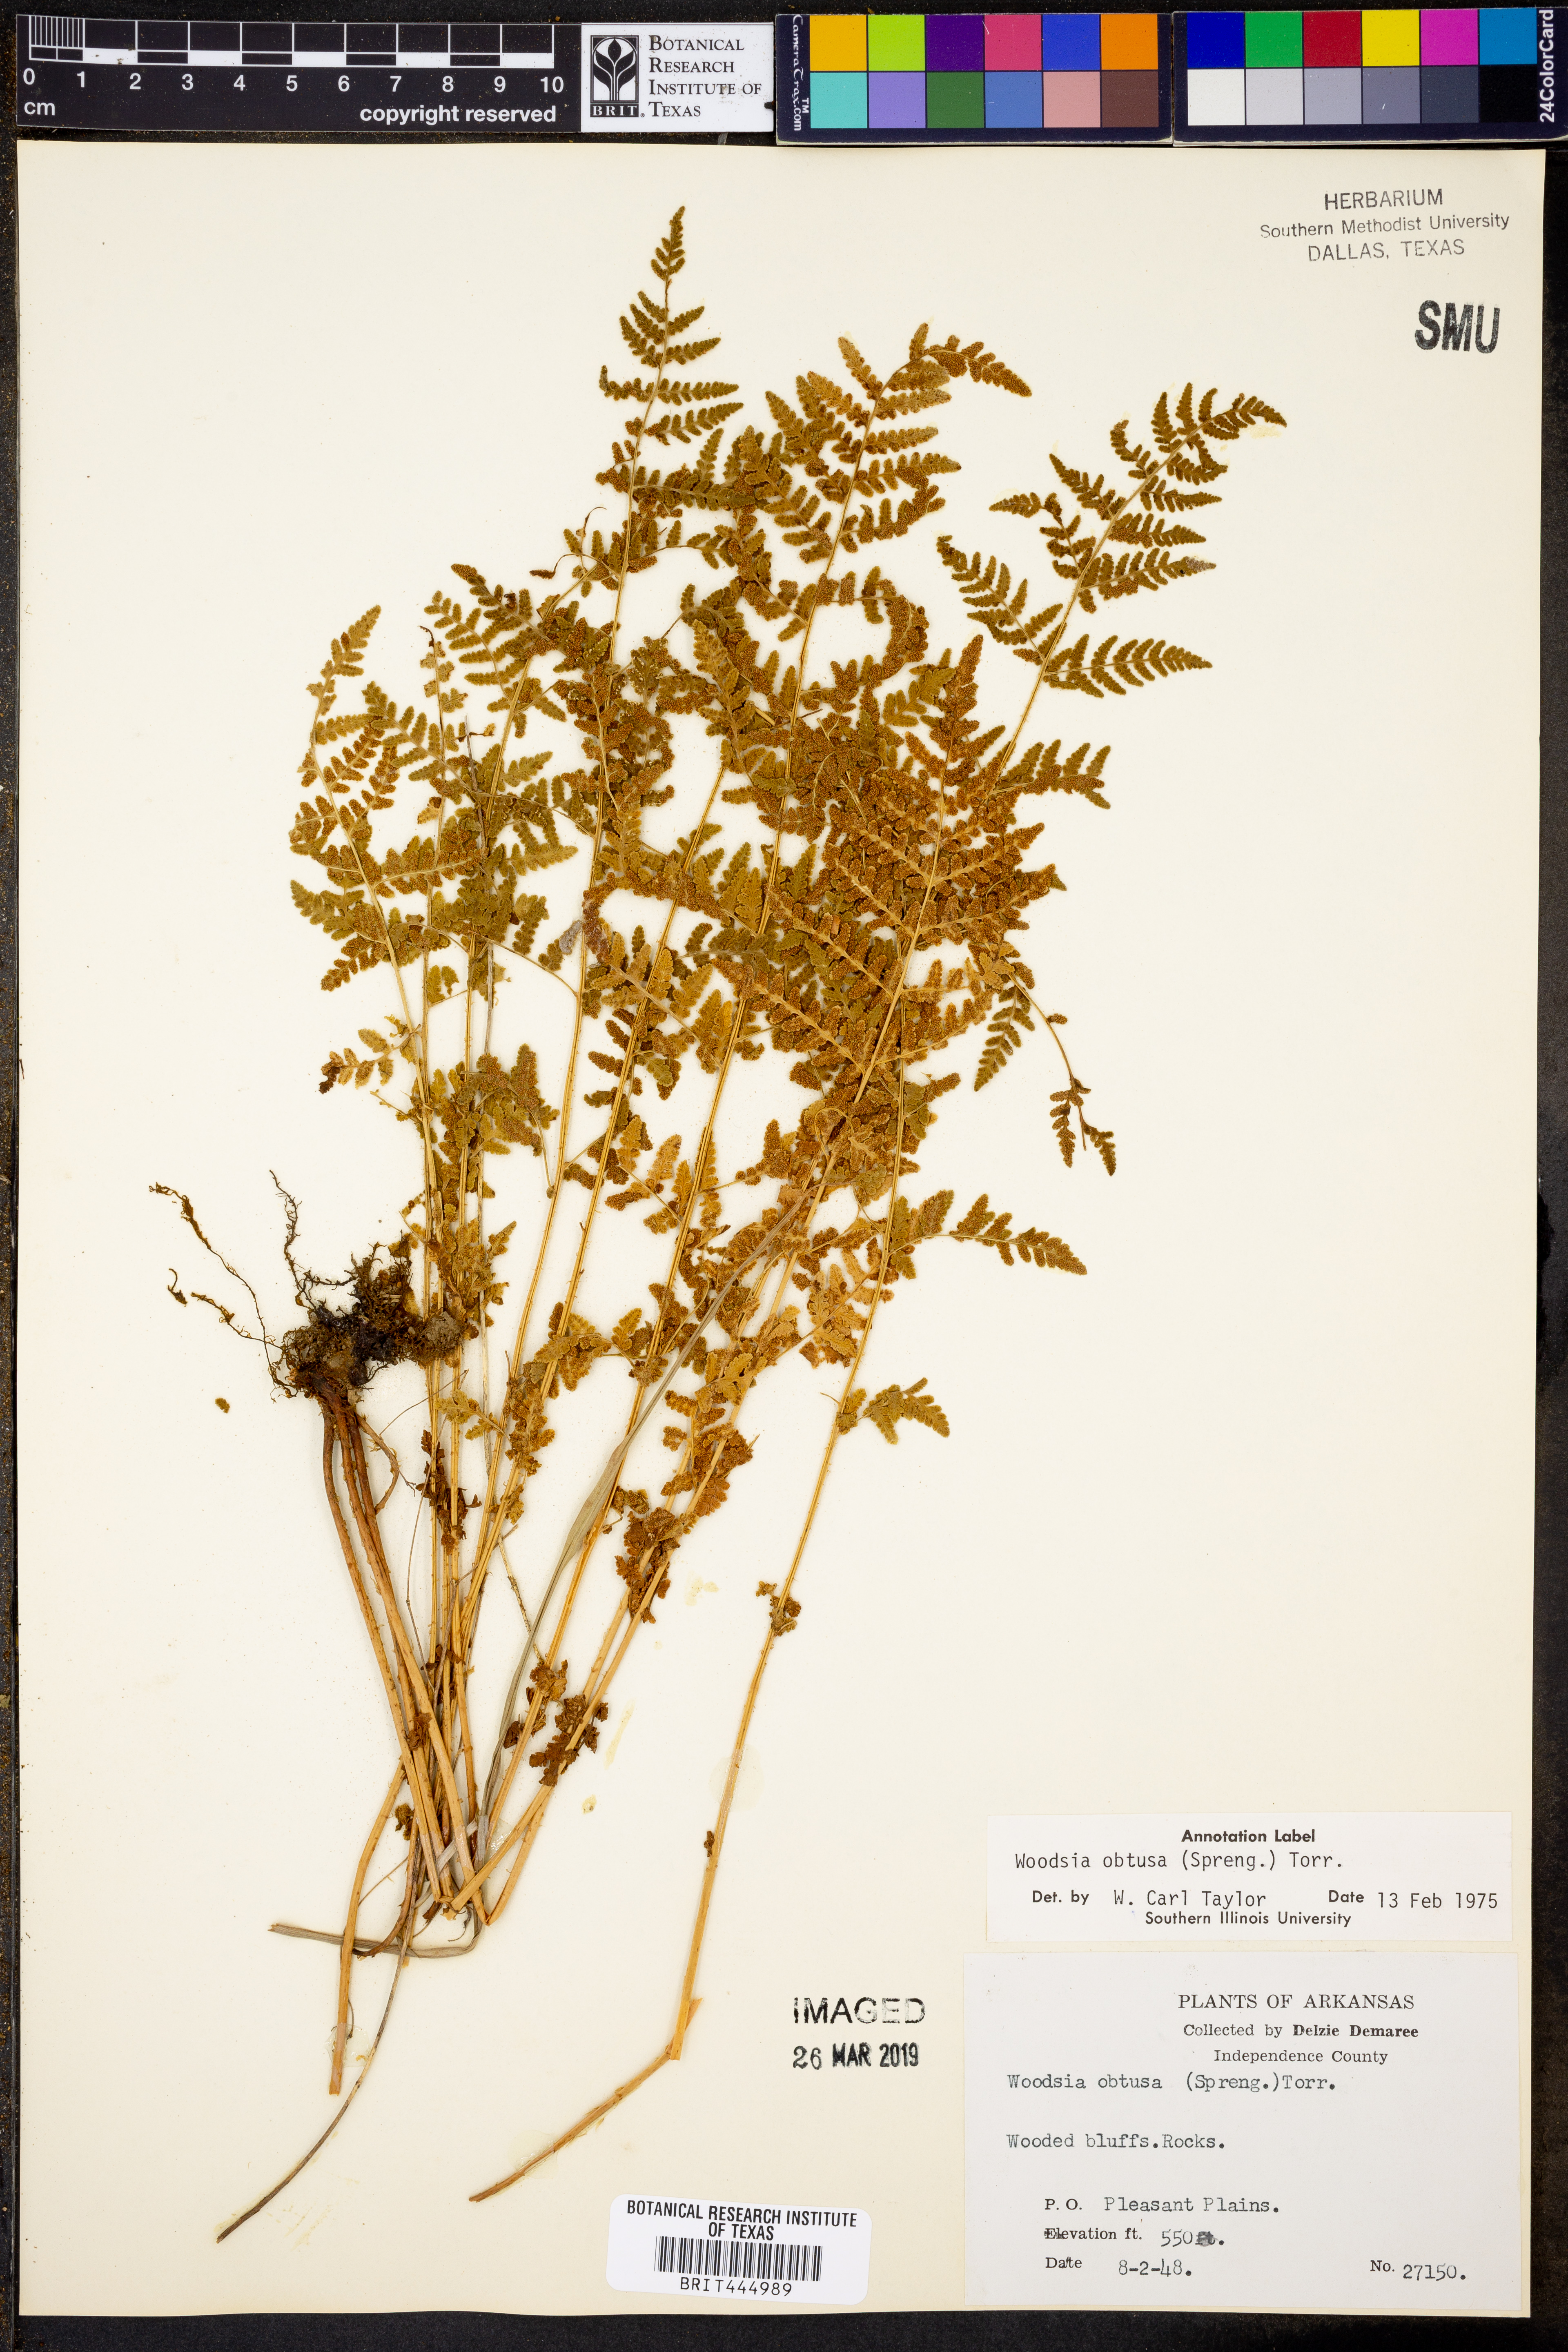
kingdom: Plantae
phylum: Tracheophyta
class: Polypodiopsida
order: Polypodiales
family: Woodsiaceae
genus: Physematium
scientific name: Physematium obtusum
